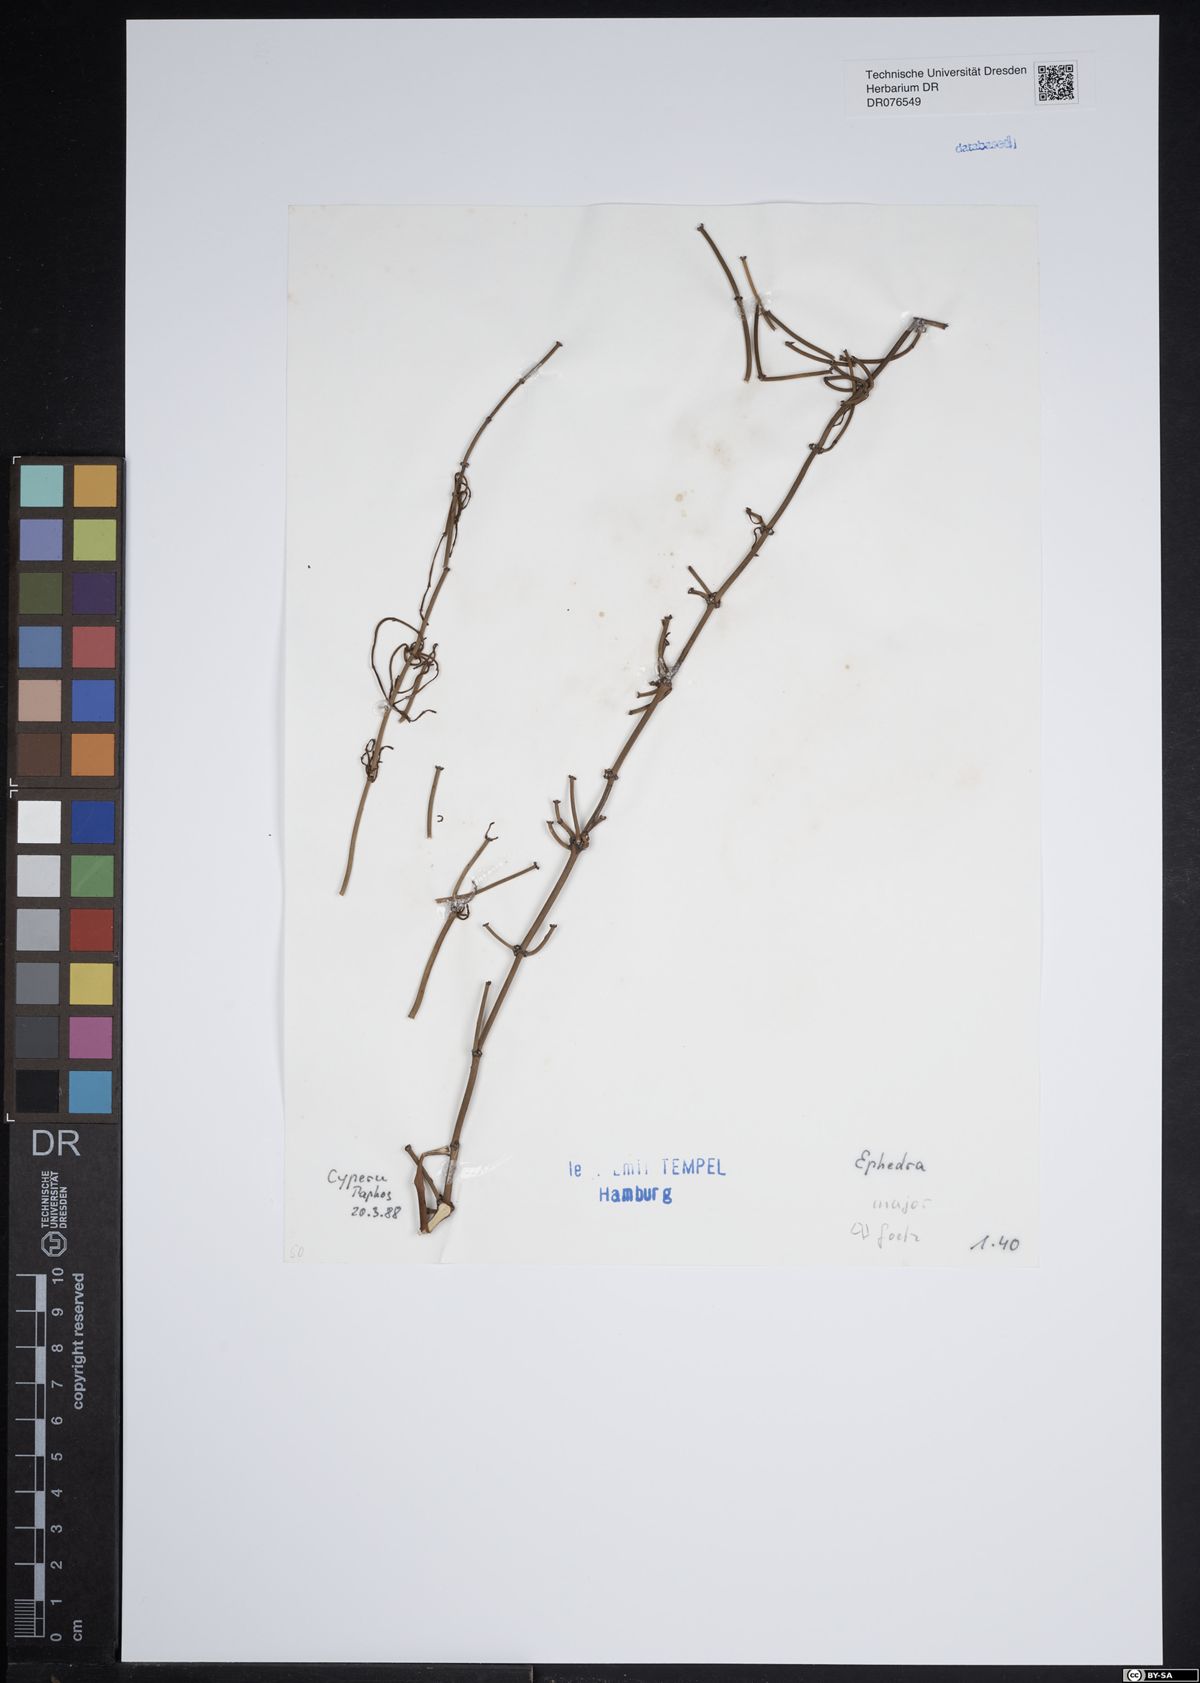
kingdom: Plantae
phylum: Tracheophyta
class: Gnetopsida
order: Ephedrales
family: Ephedraceae
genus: Ephedra
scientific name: Ephedra foeminea
